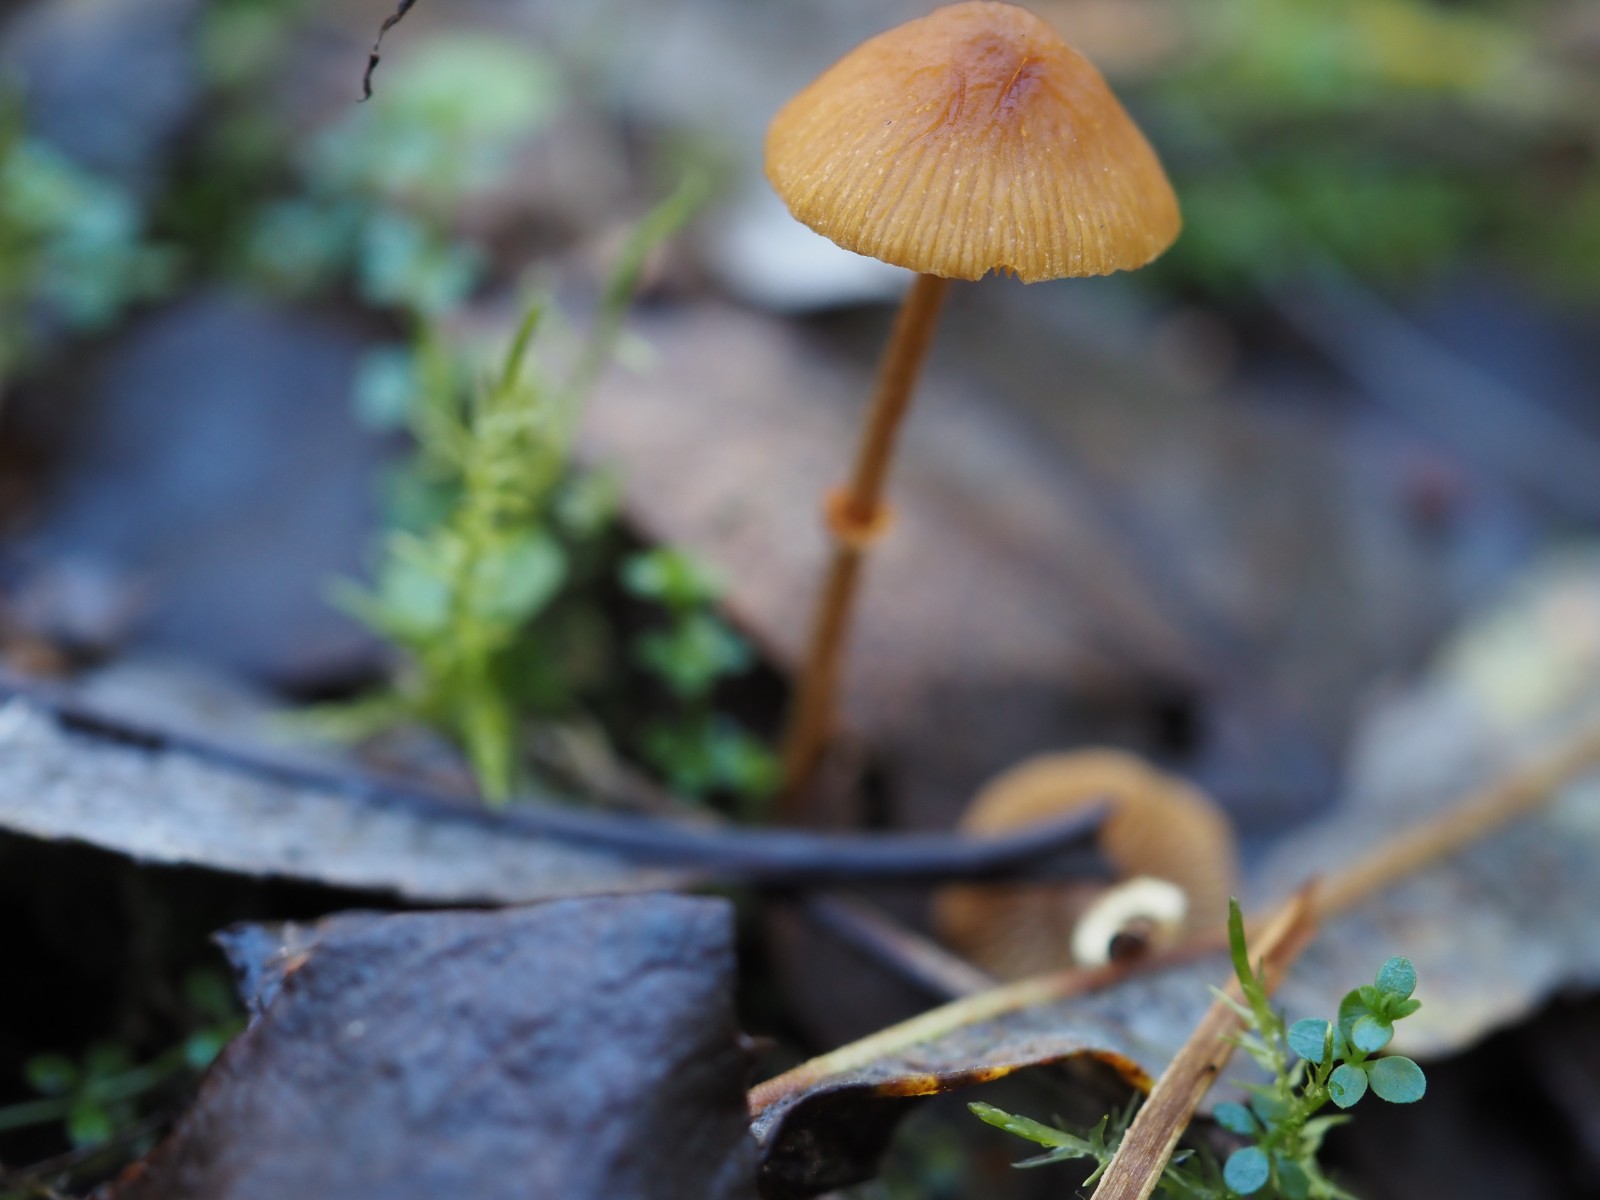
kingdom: Fungi
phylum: Basidiomycota
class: Agaricomycetes
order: Agaricales
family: Bolbitiaceae
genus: Pholiotina
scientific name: Pholiotina
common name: dansehat
